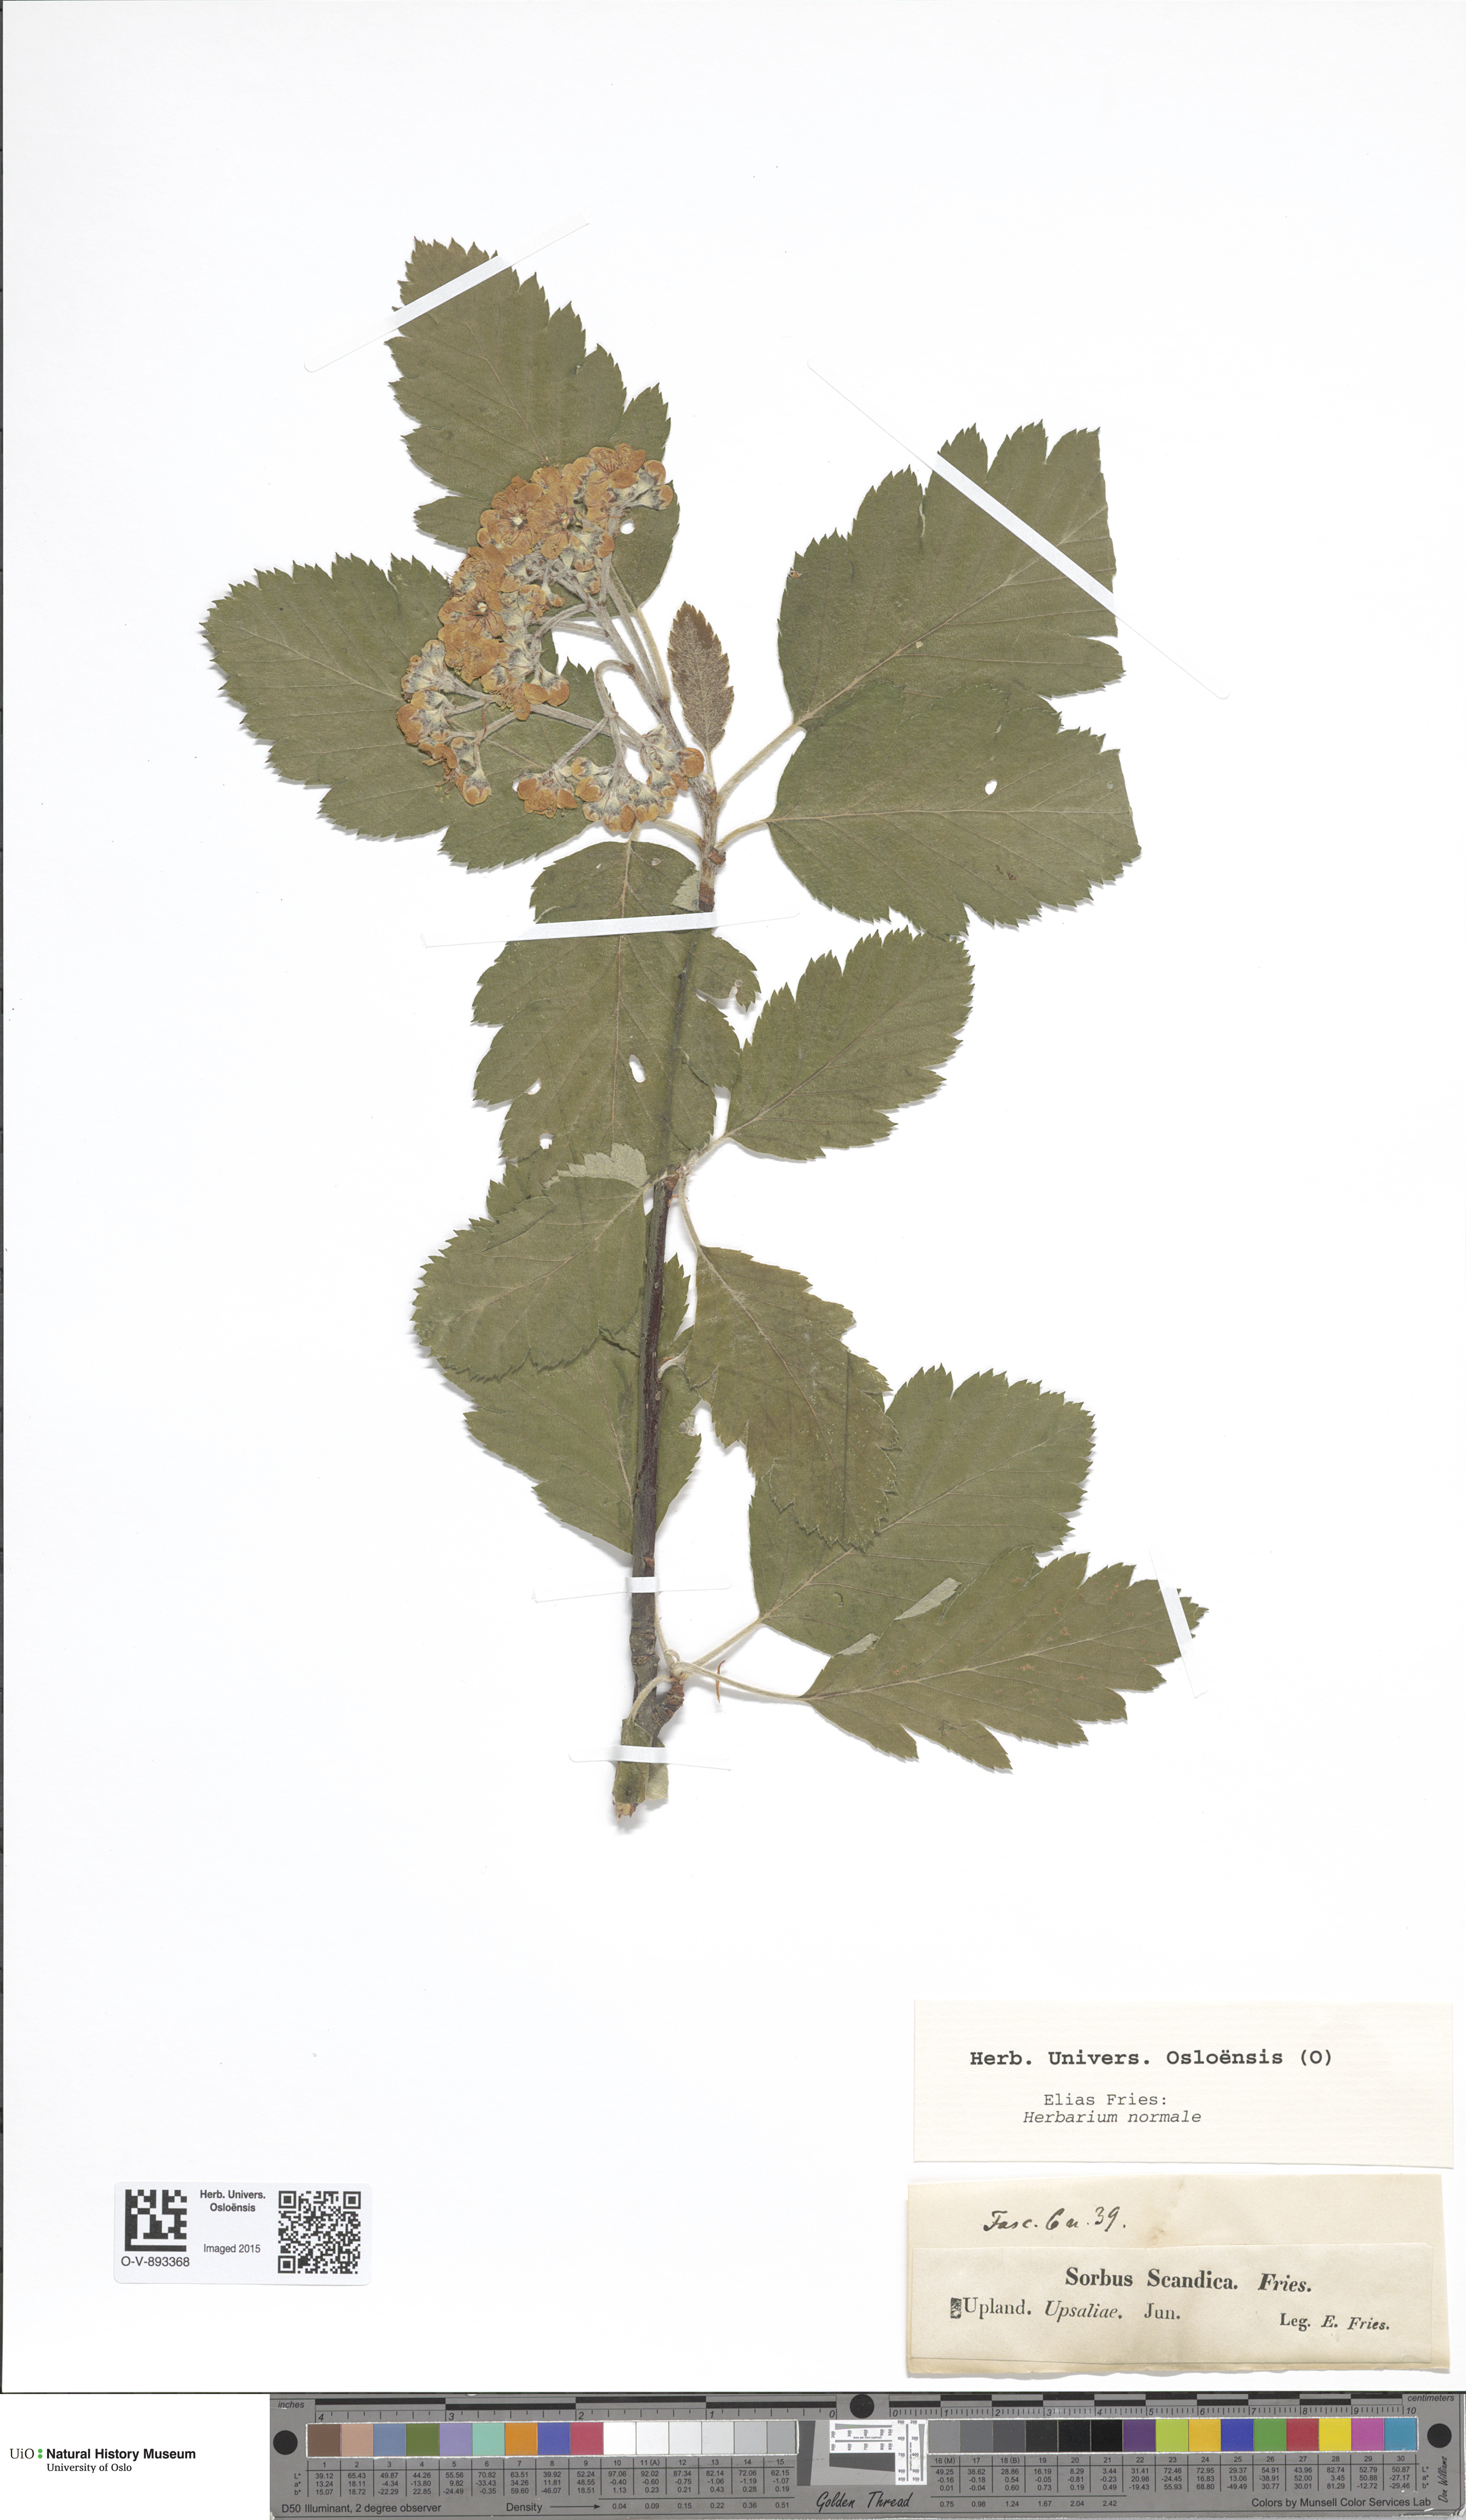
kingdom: Plantae
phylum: Tracheophyta
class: Magnoliopsida
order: Rosales
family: Rosaceae
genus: Scandosorbus
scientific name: Scandosorbus intermedia
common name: Swedish whitebeam
